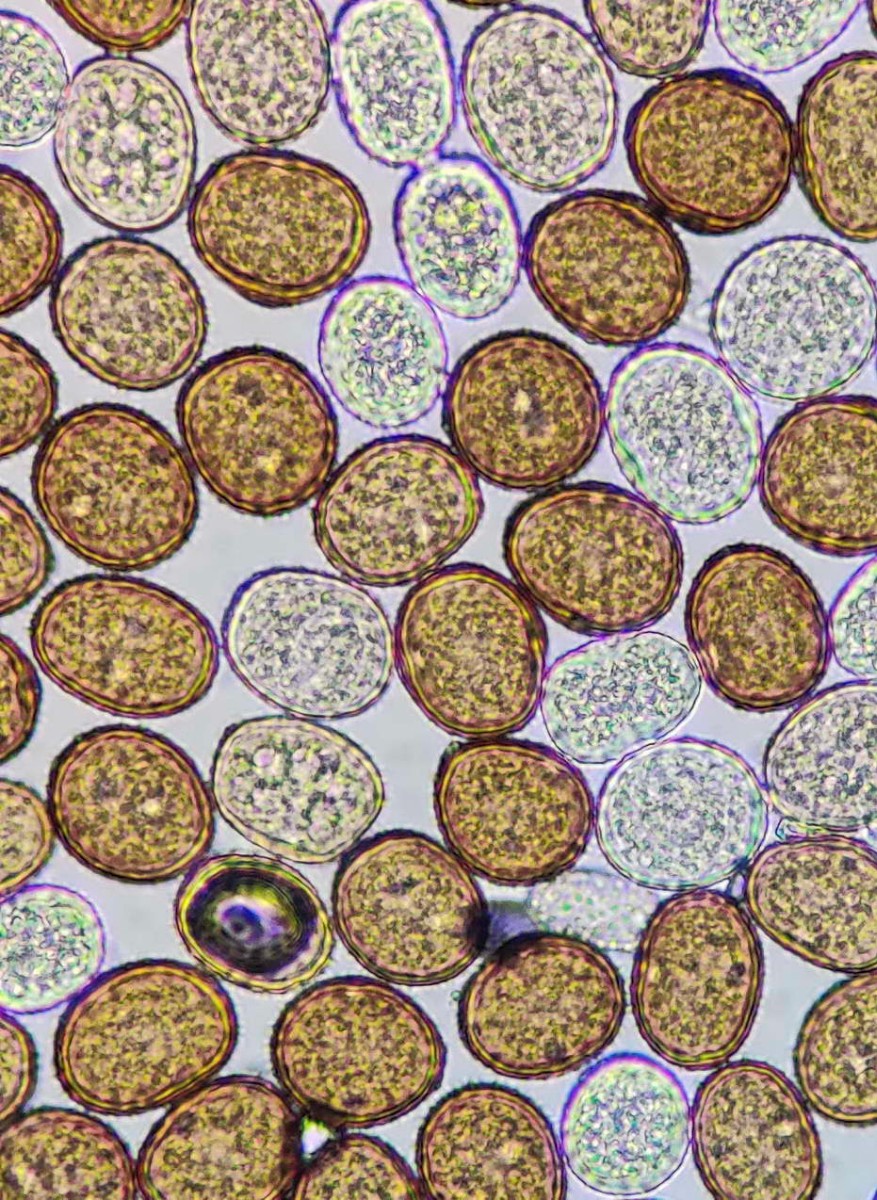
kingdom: Fungi
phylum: Basidiomycota
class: Pucciniomycetes
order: Pucciniales
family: Pucciniaceae
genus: Puccinia
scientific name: Puccinia violae
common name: viol-tvecellerust
